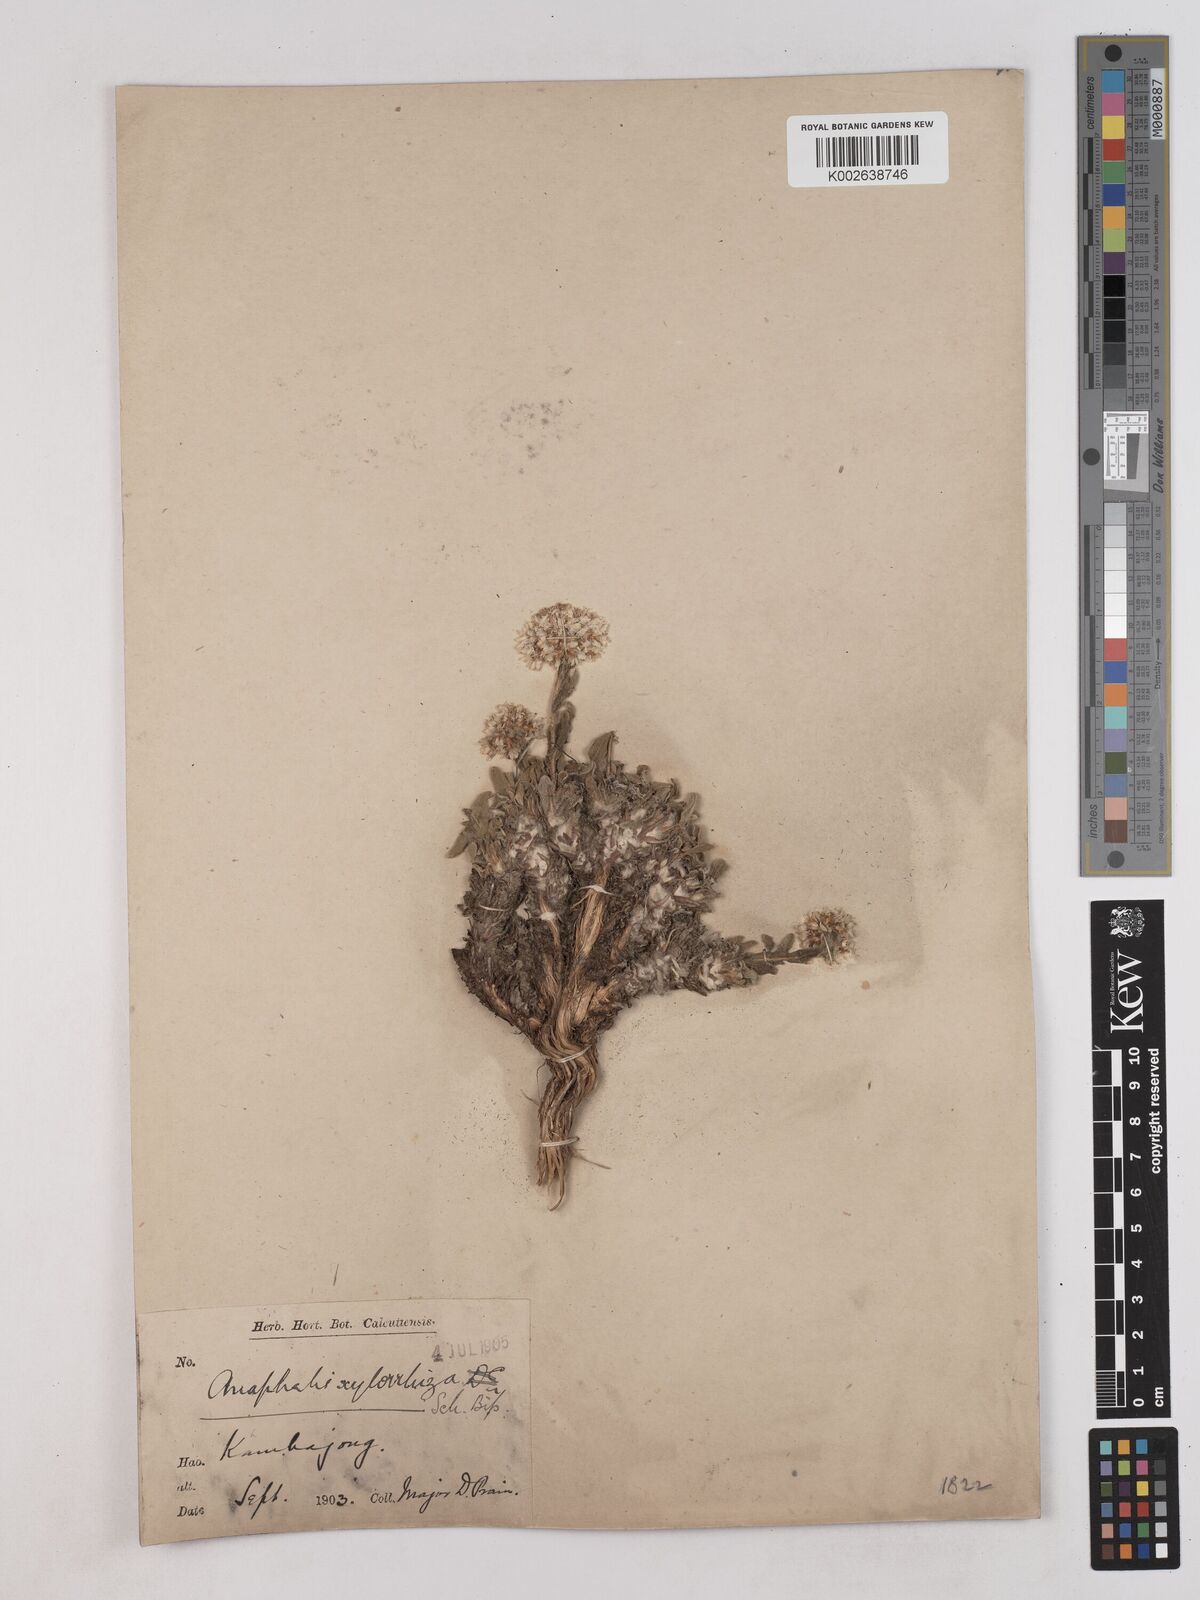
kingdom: Plantae
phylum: Tracheophyta
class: Magnoliopsida
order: Asterales
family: Asteraceae
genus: Anaphalis
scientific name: Anaphalis xylorhiza
